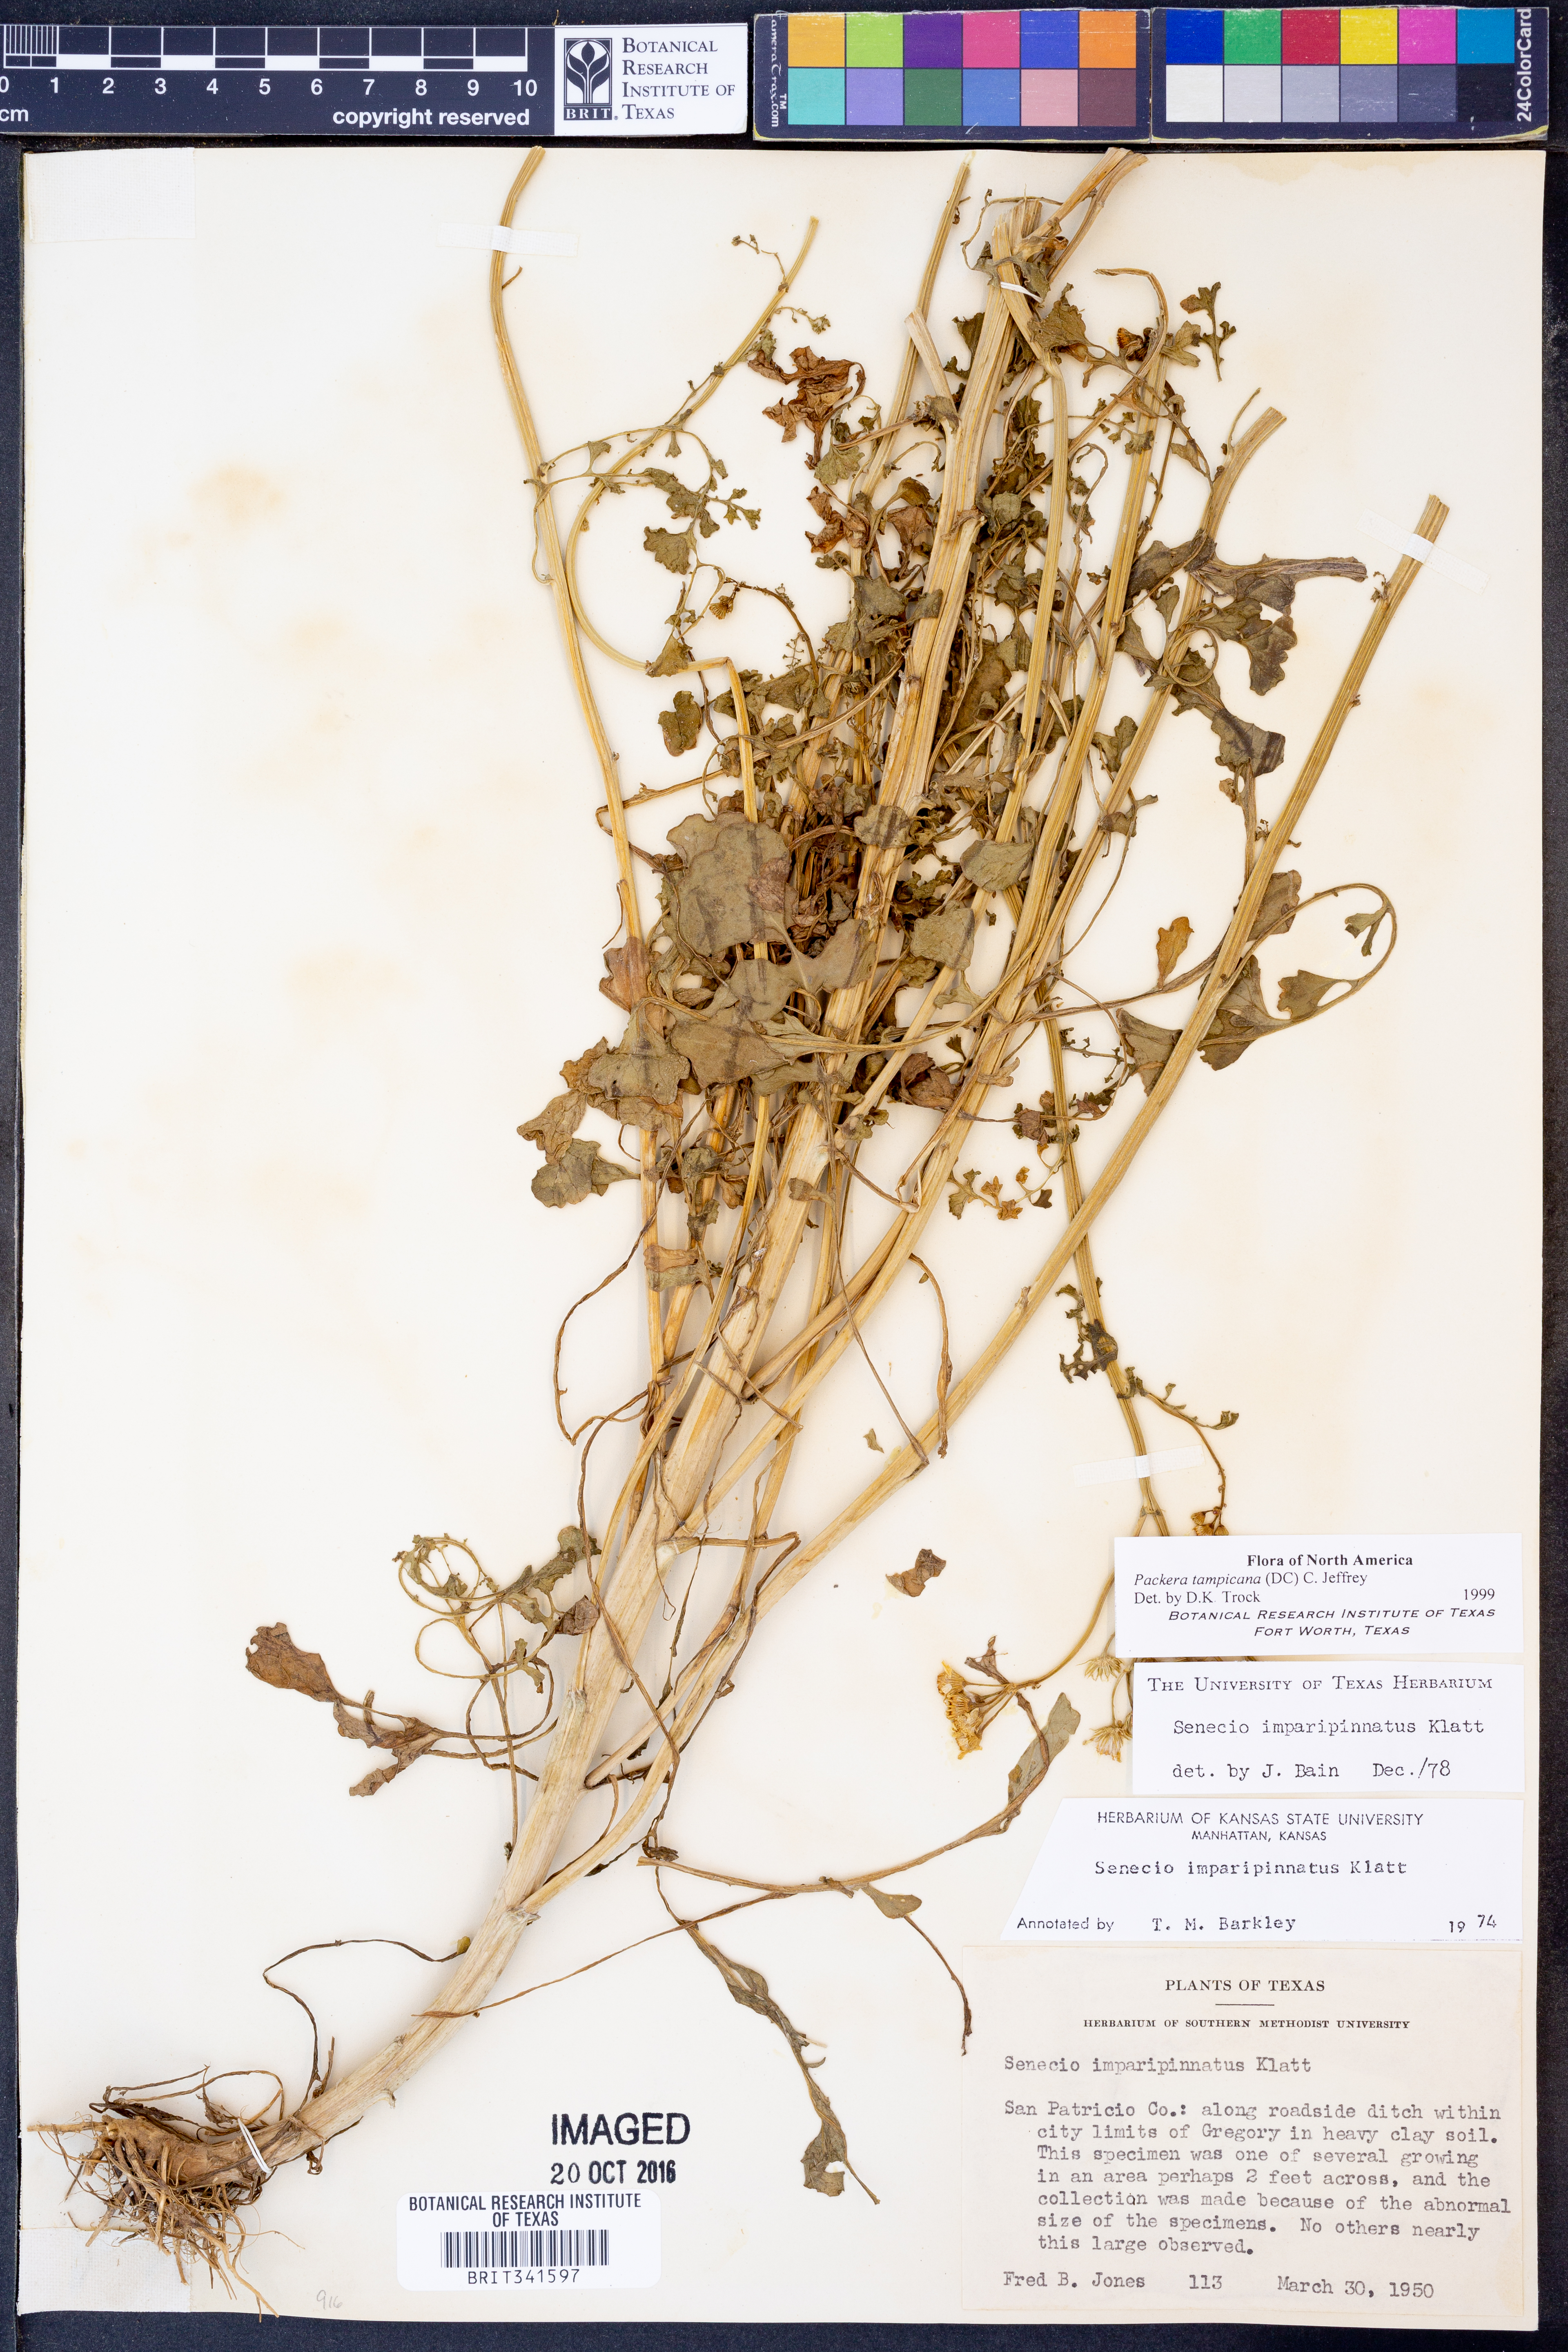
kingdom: Plantae
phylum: Tracheophyta
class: Magnoliopsida
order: Asterales
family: Asteraceae
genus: Packera
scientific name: Packera tampicana
